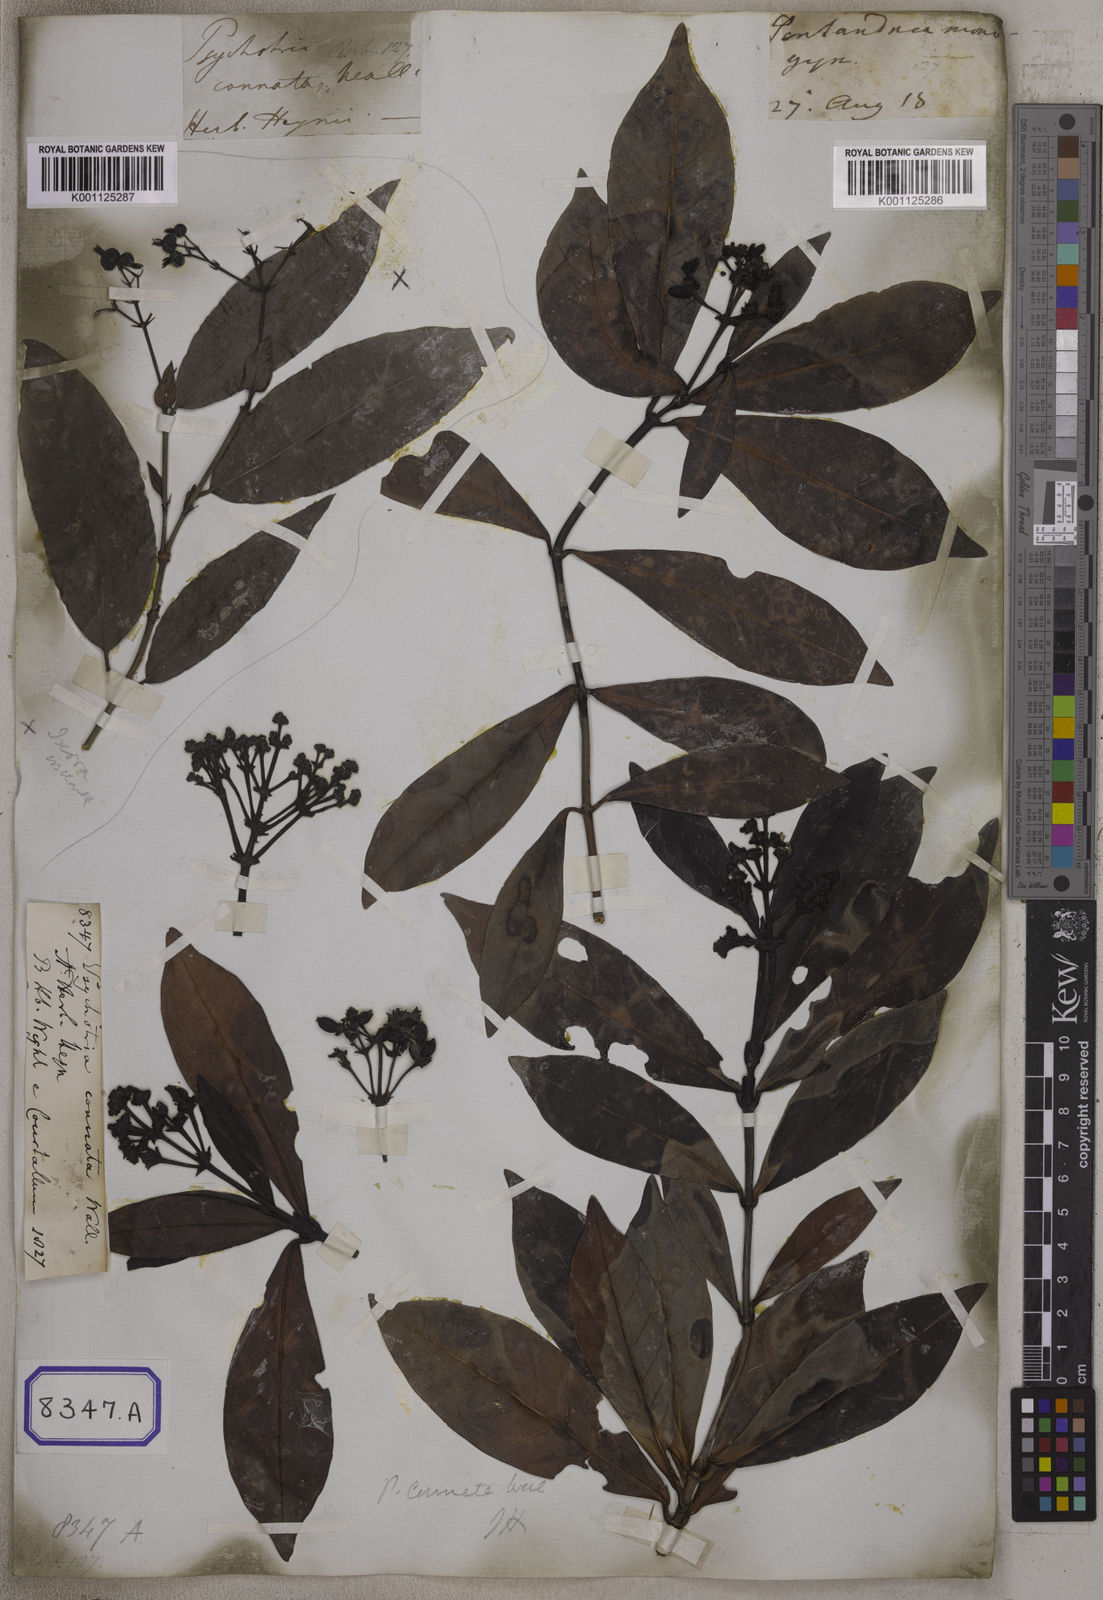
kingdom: Plantae
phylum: Tracheophyta
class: Magnoliopsida
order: Gentianales
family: Rubiaceae
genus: Psychotria
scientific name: Psychotria connata
